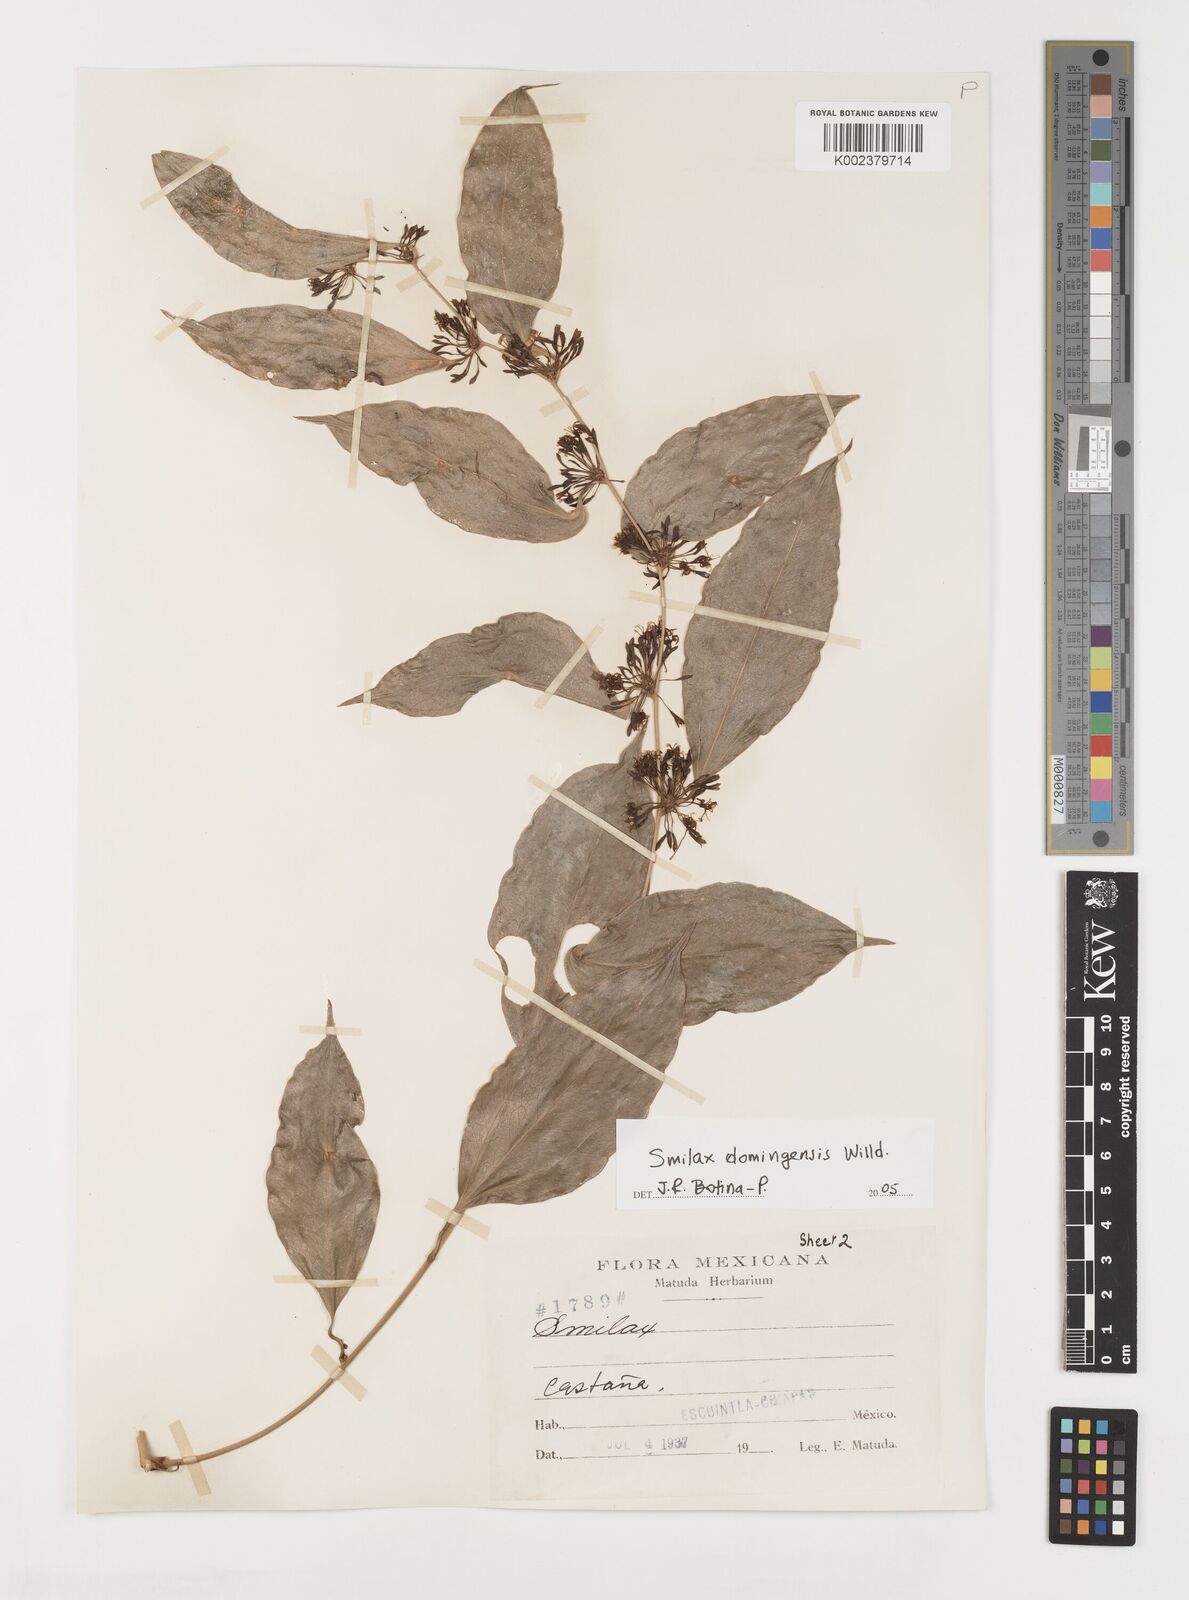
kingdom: Plantae
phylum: Tracheophyta
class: Liliopsida
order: Liliales
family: Smilacaceae
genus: Smilax
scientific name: Smilax domingensis
